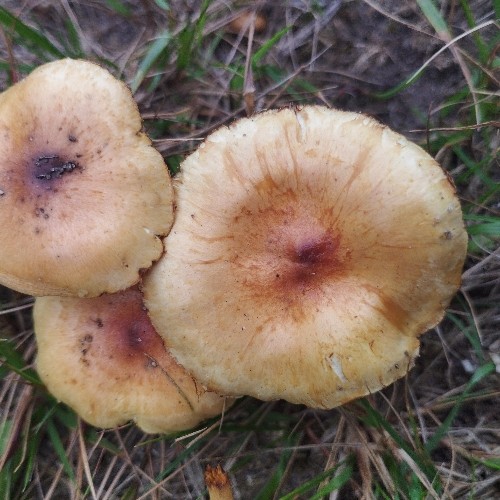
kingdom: Fungi
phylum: Basidiomycota
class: Agaricomycetes
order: Agaricales
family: Strophariaceae
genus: Pholiota
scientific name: Pholiota
